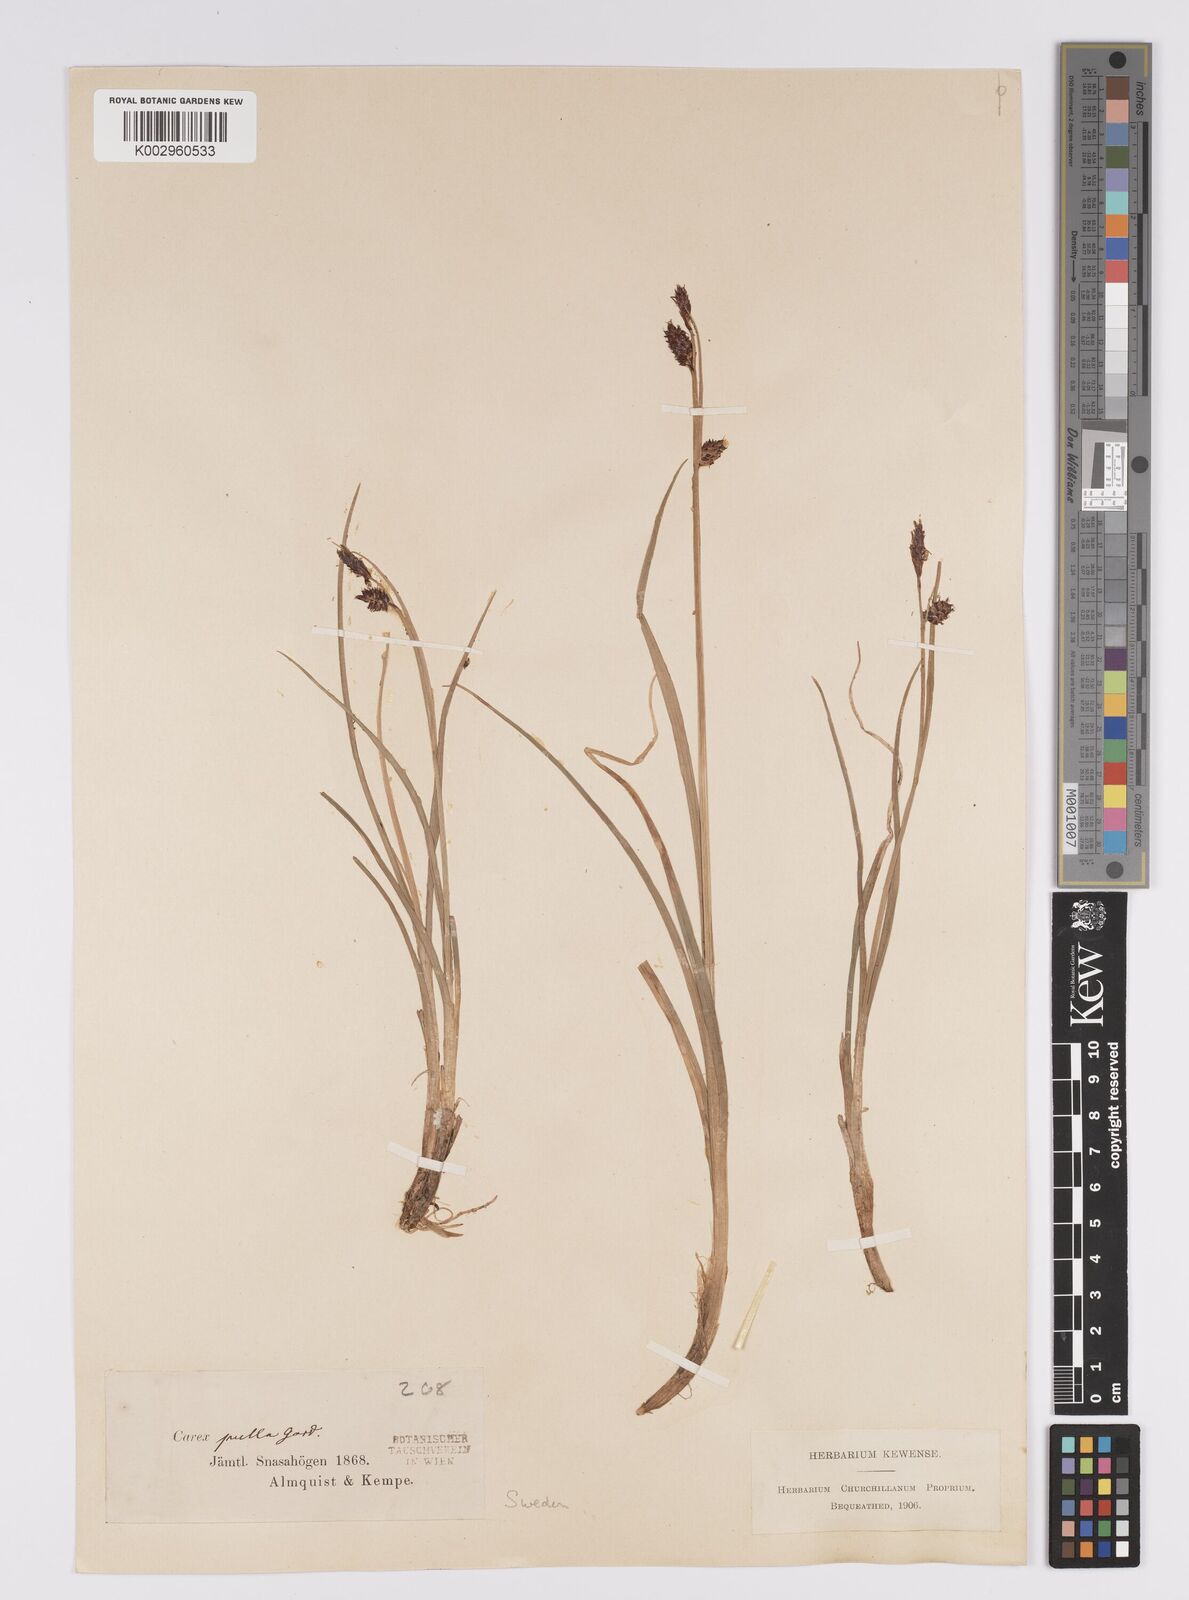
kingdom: Plantae
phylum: Tracheophyta
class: Liliopsida
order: Poales
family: Cyperaceae
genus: Carex
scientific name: Carex saxatilis
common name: Russet sedge
